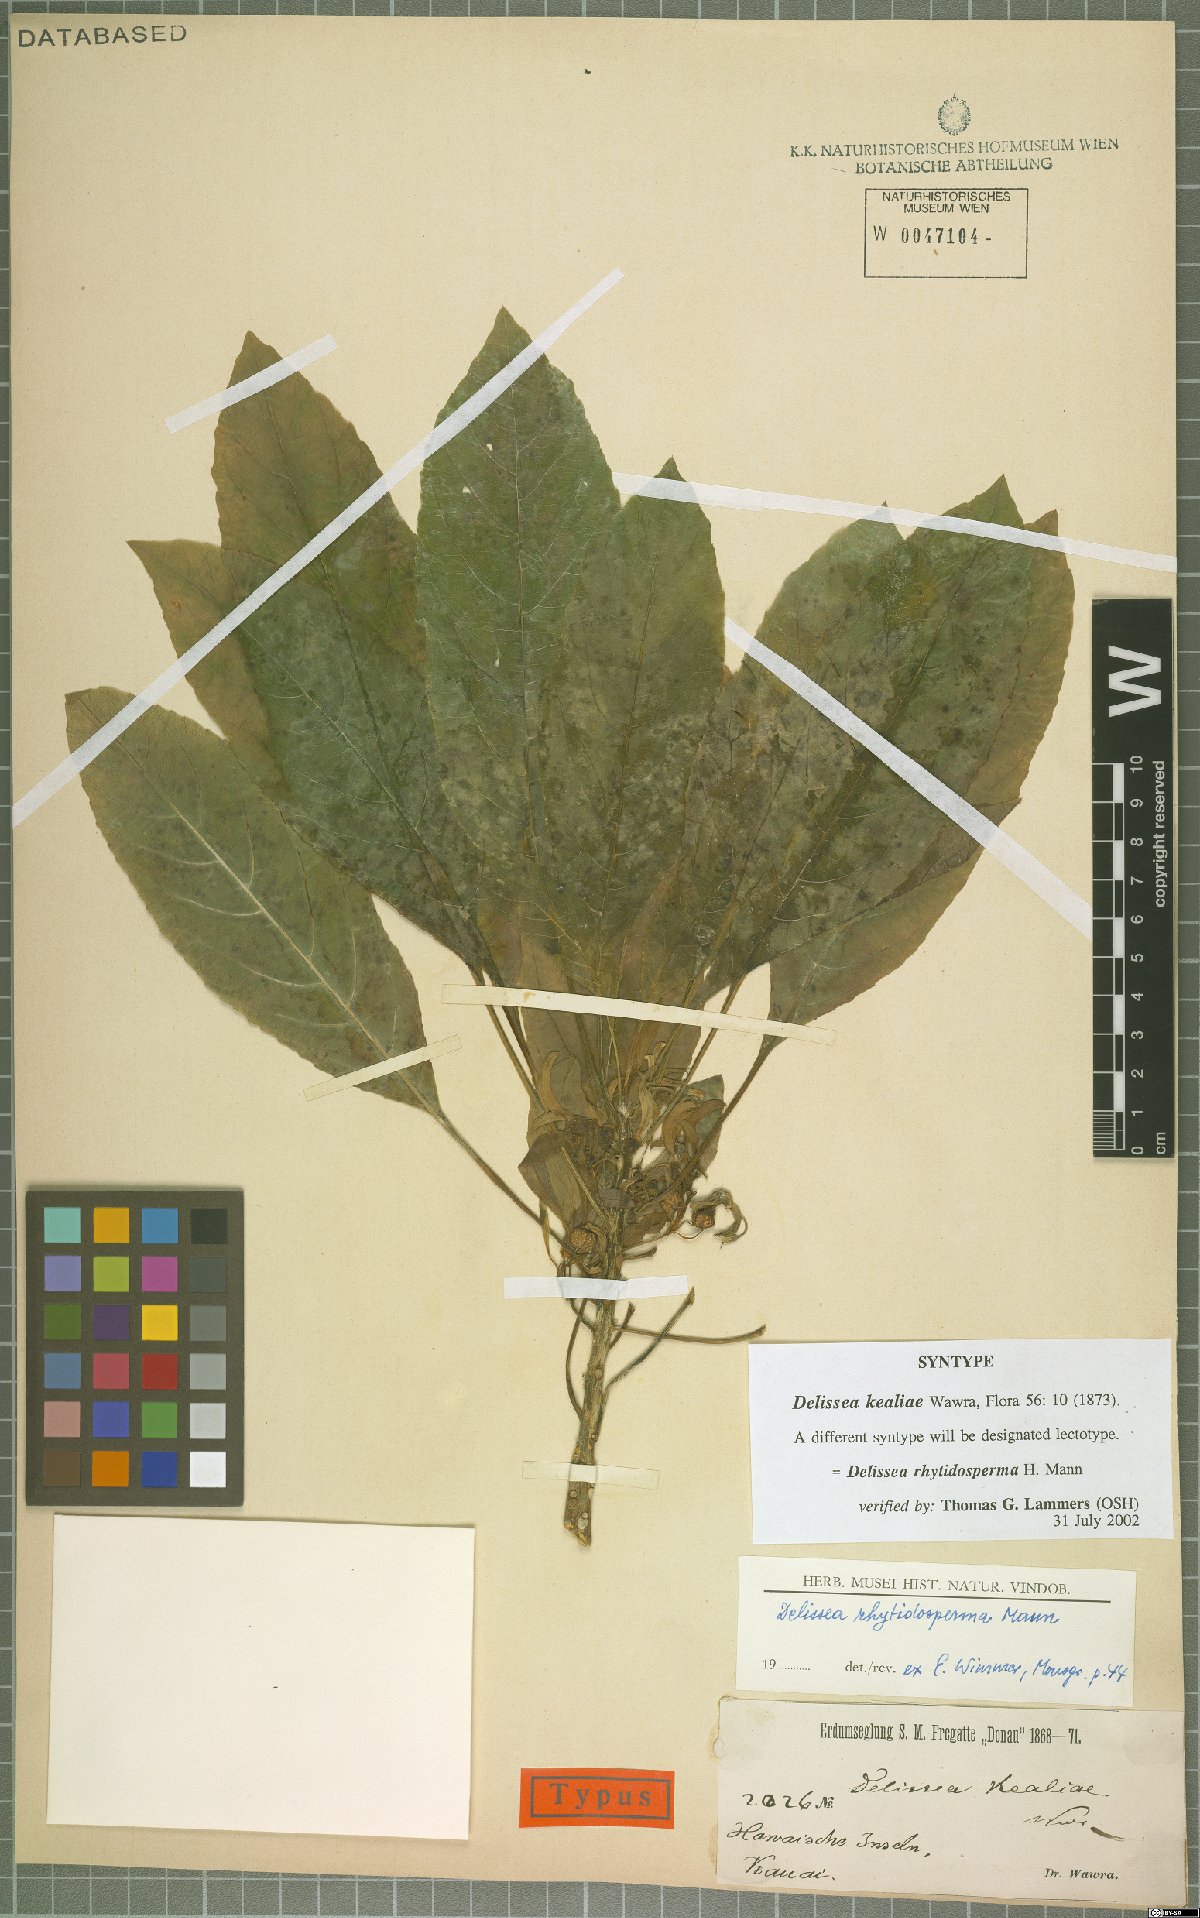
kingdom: Plantae
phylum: Tracheophyta
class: Magnoliopsida
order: Asterales
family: Campanulaceae
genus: Delissea
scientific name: Delissea rhytidosperma
